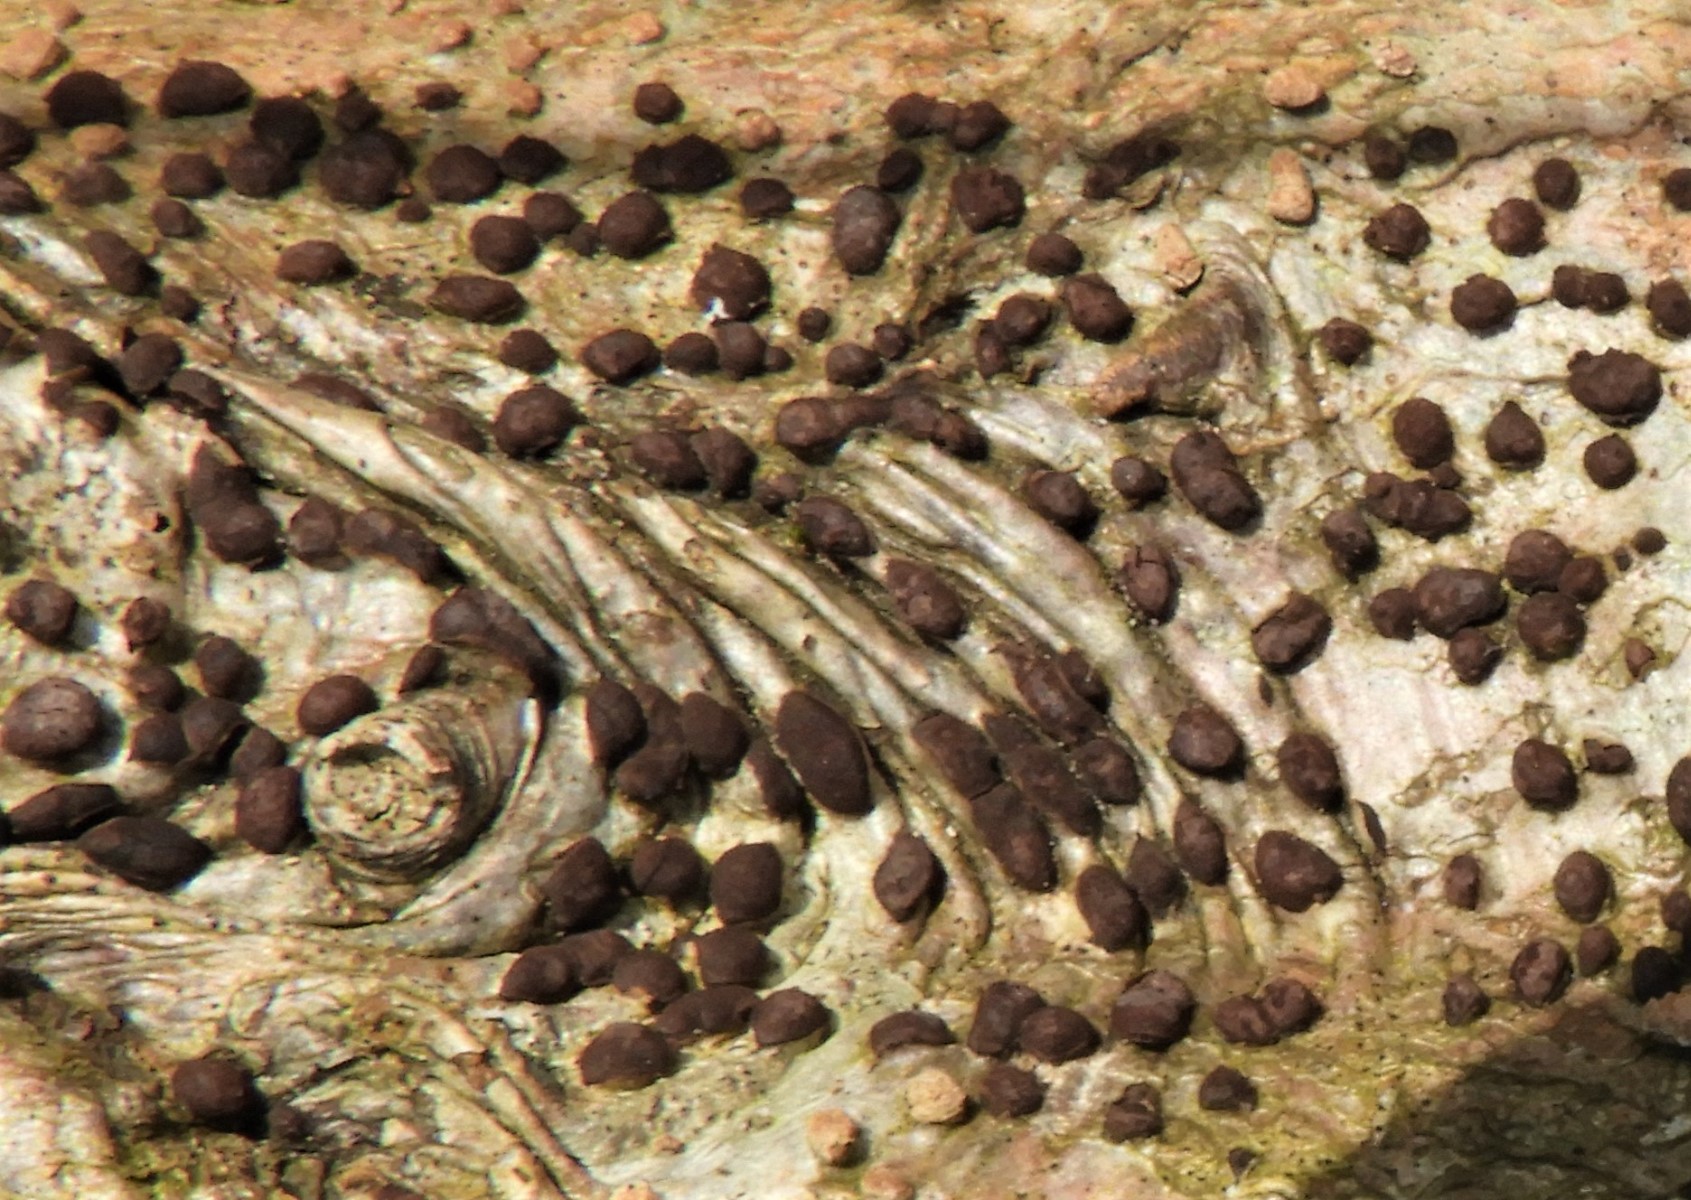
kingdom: Fungi
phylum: Ascomycota
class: Sordariomycetes
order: Xylariales
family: Hypoxylaceae
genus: Hypoxylon
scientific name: Hypoxylon fuscum
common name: kegleformet kulbær
